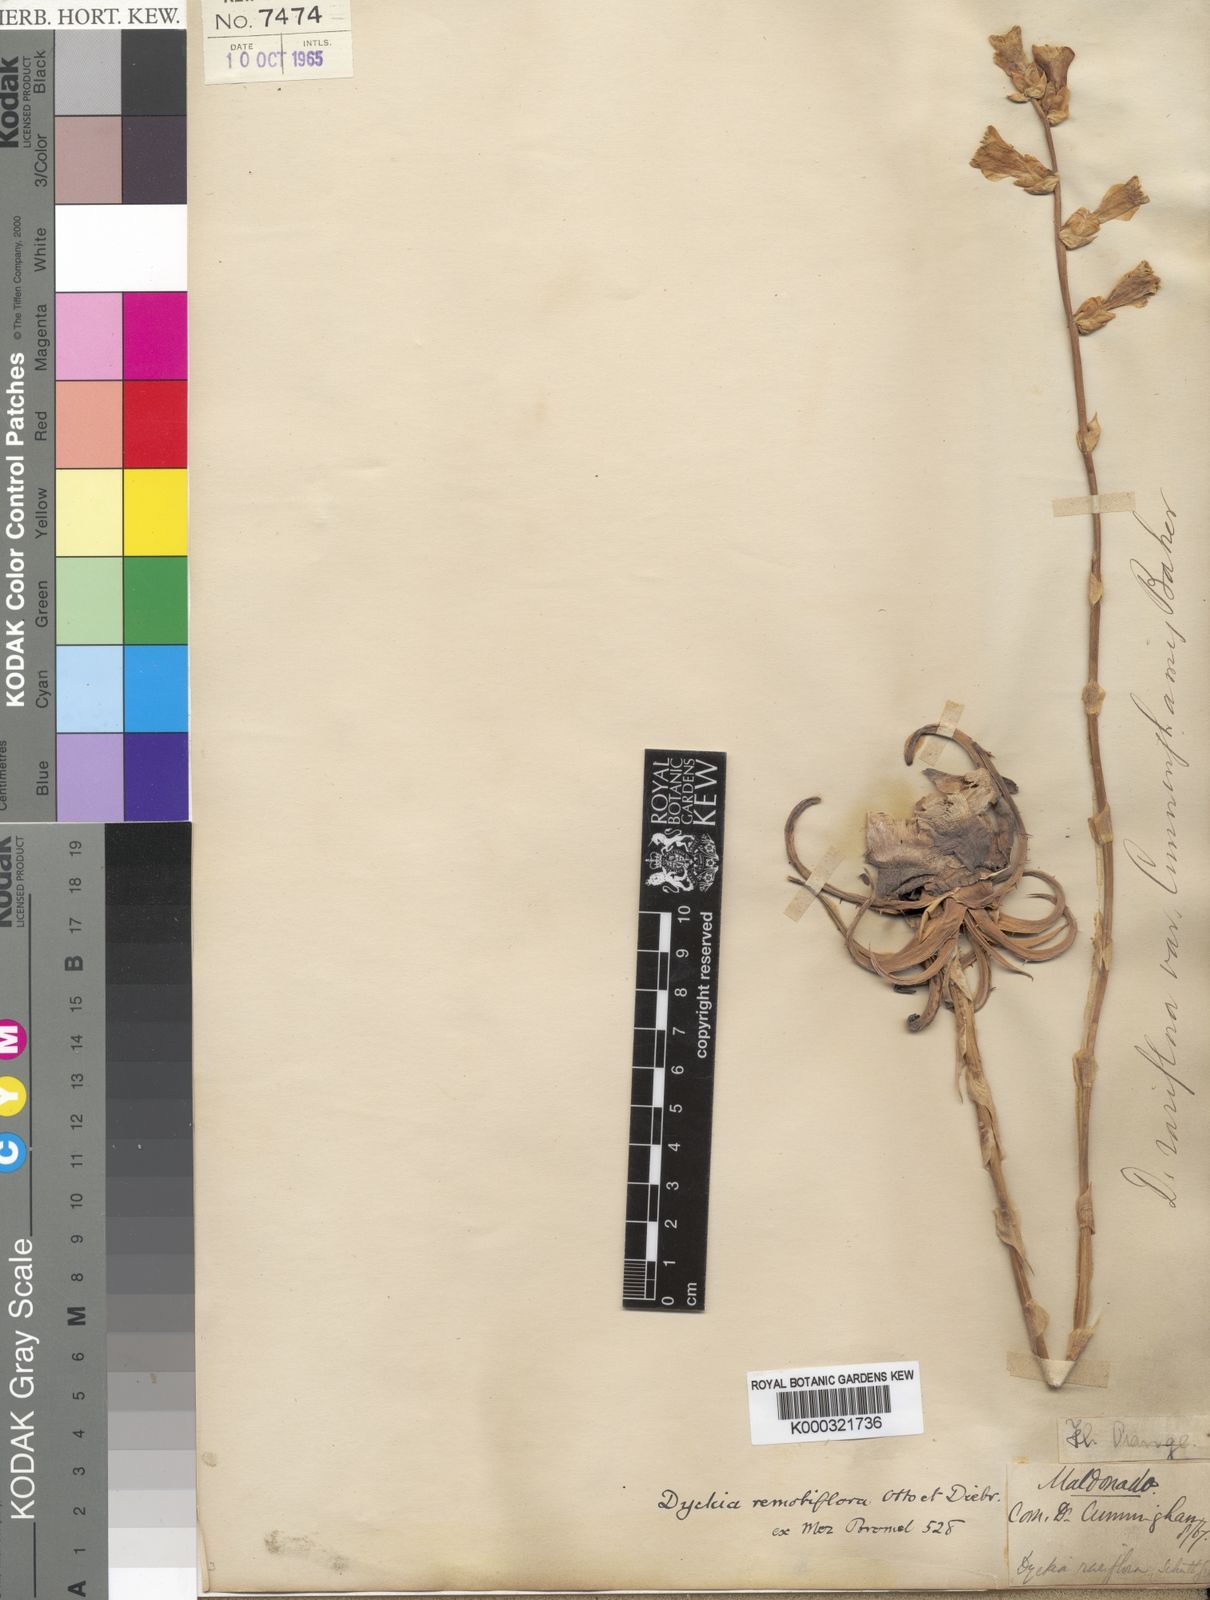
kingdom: Plantae
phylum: Tracheophyta
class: Liliopsida
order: Poales
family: Bromeliaceae
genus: Dyckia
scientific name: Dyckia remotiflora
